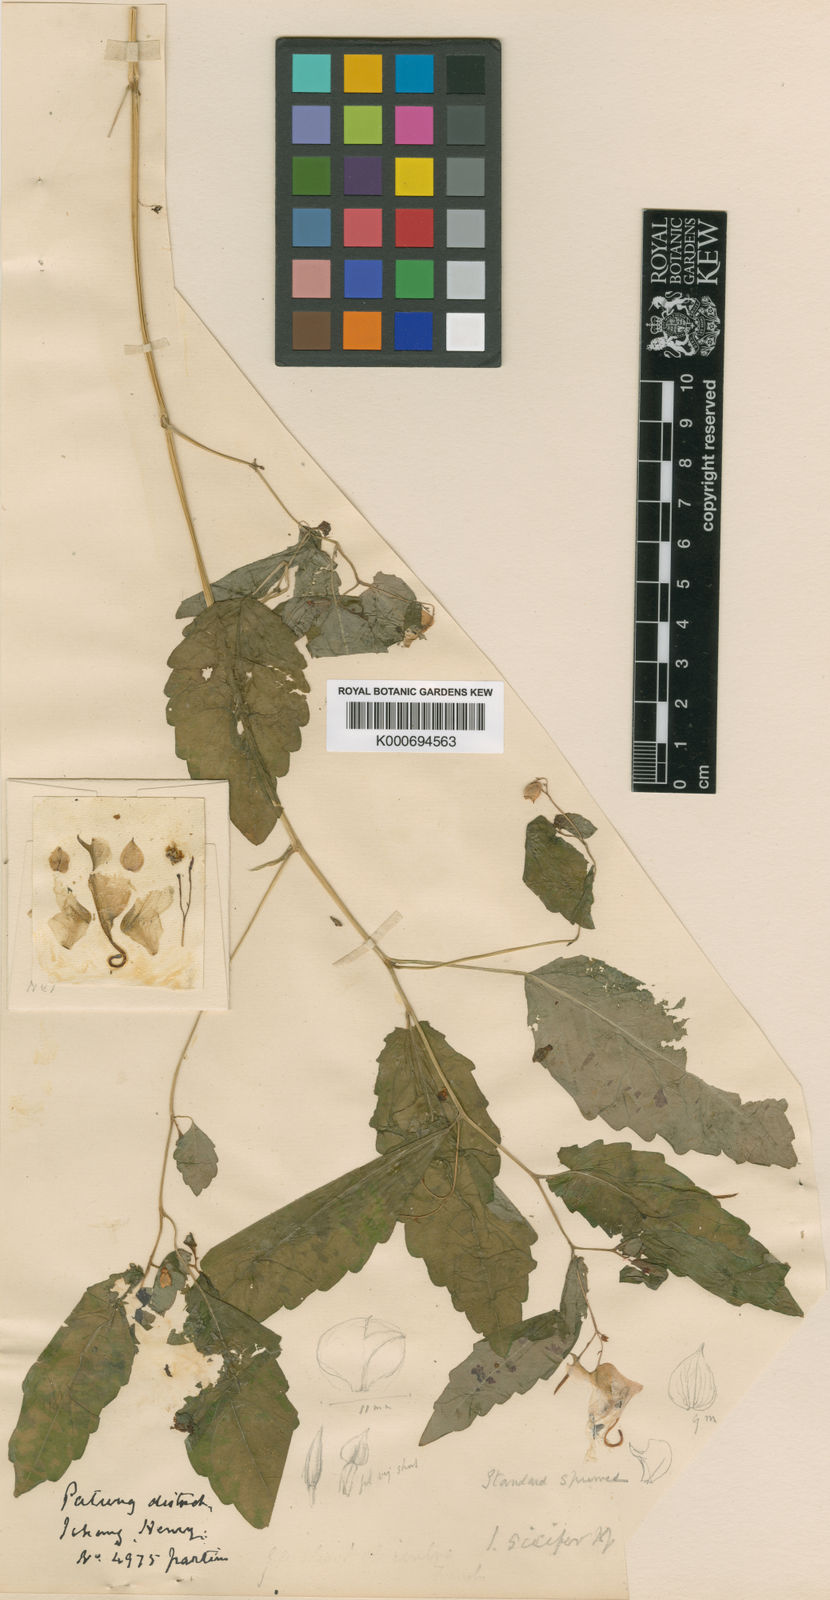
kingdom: Plantae
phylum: Tracheophyta
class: Magnoliopsida
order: Ericales
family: Balsaminaceae
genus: Impatiens
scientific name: Impatiens
